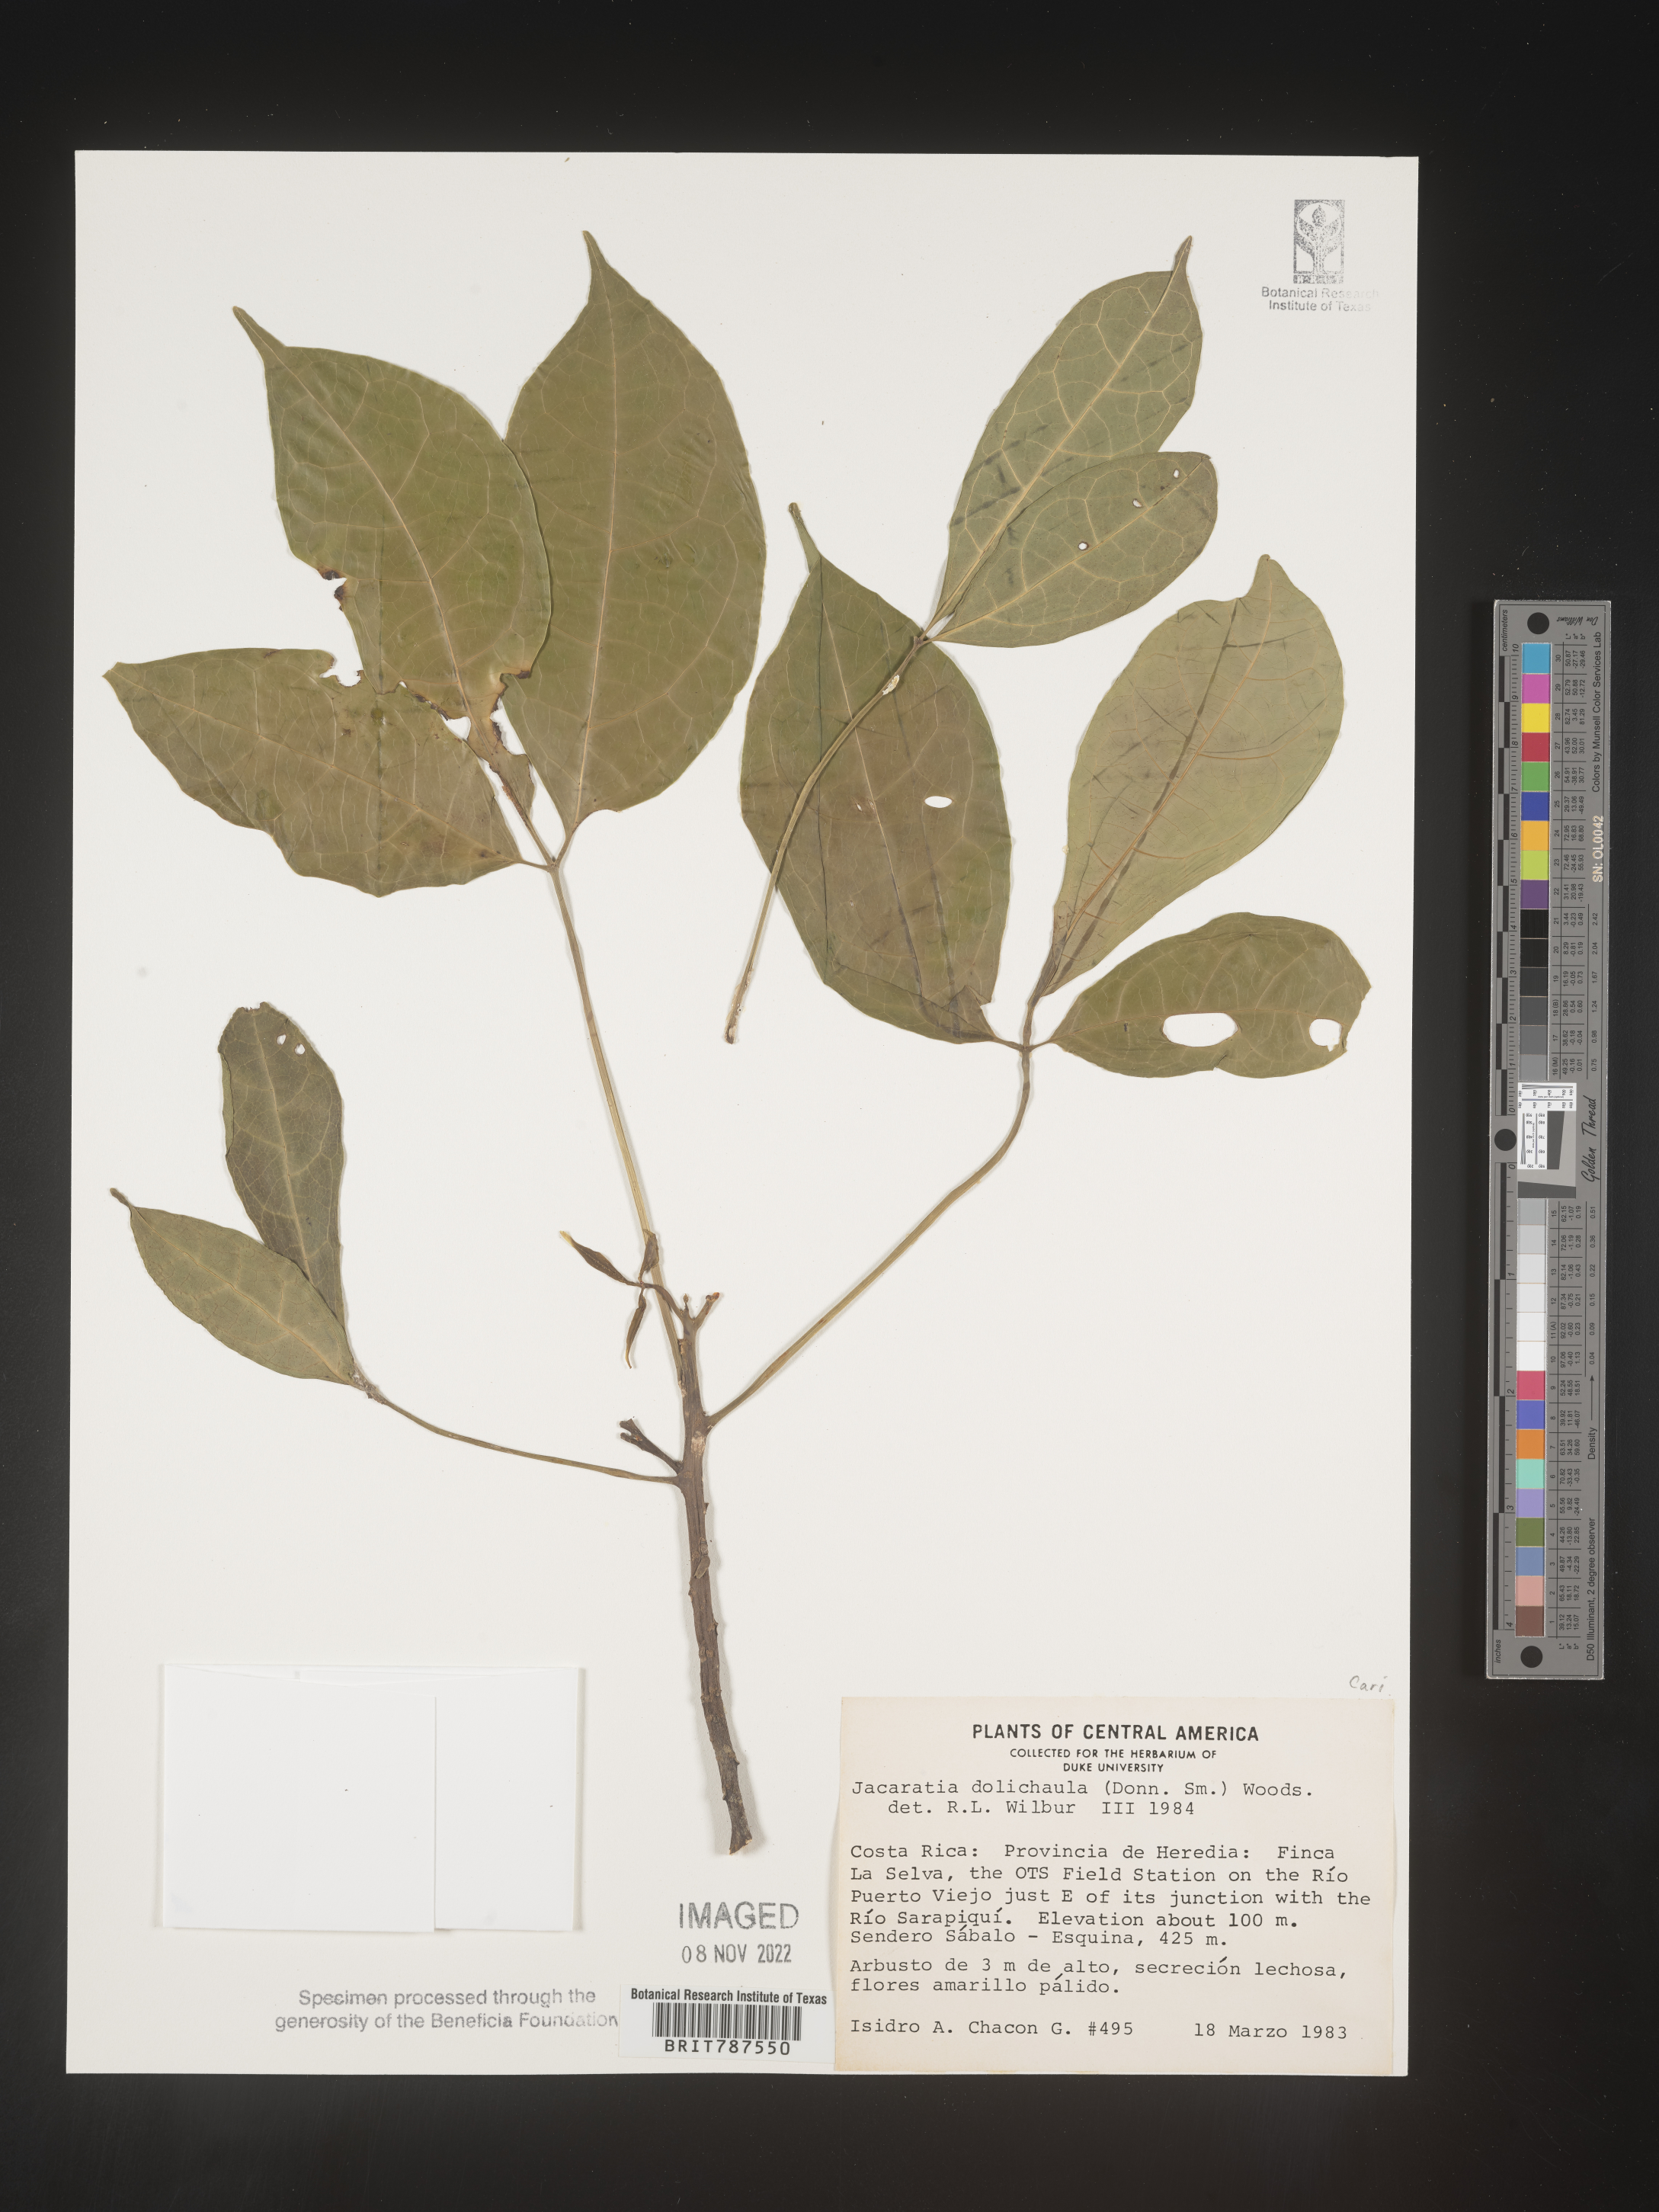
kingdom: Plantae
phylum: Tracheophyta
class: Magnoliopsida
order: Brassicales
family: Caricaceae
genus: Jacaratia
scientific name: Jacaratia
